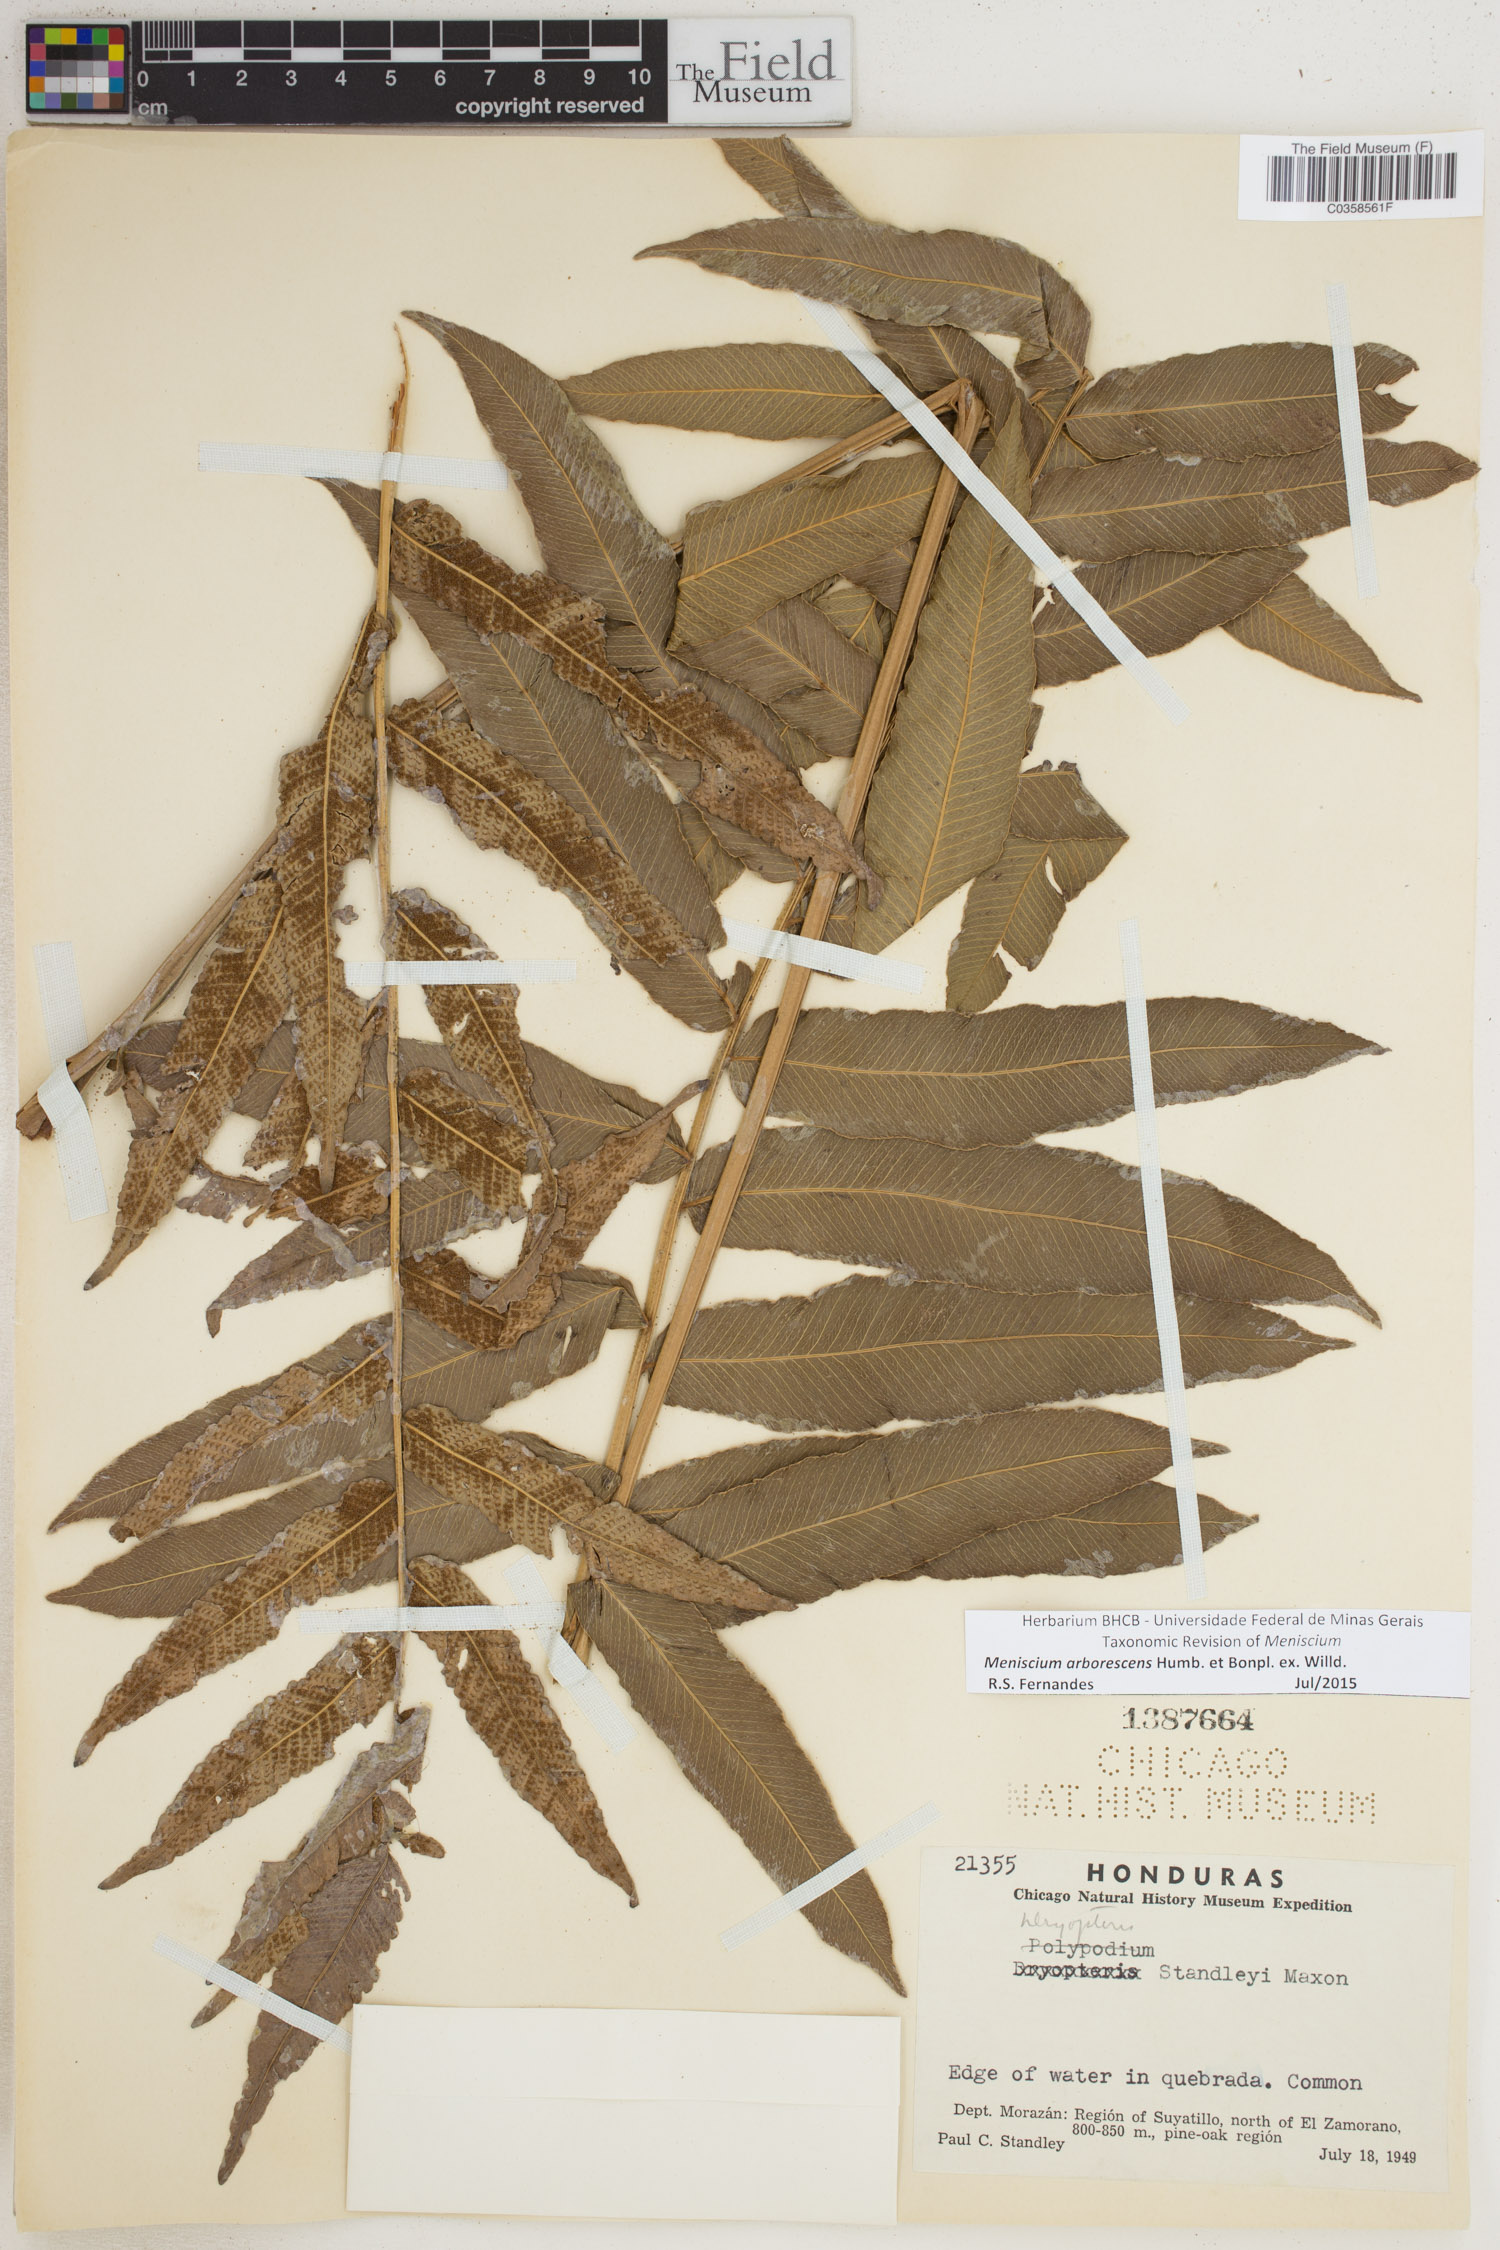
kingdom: Plantae
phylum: Tracheophyta
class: Polypodiopsida
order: Polypodiales
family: Thelypteridaceae
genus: Meniscium
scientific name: Meniscium arborescens
